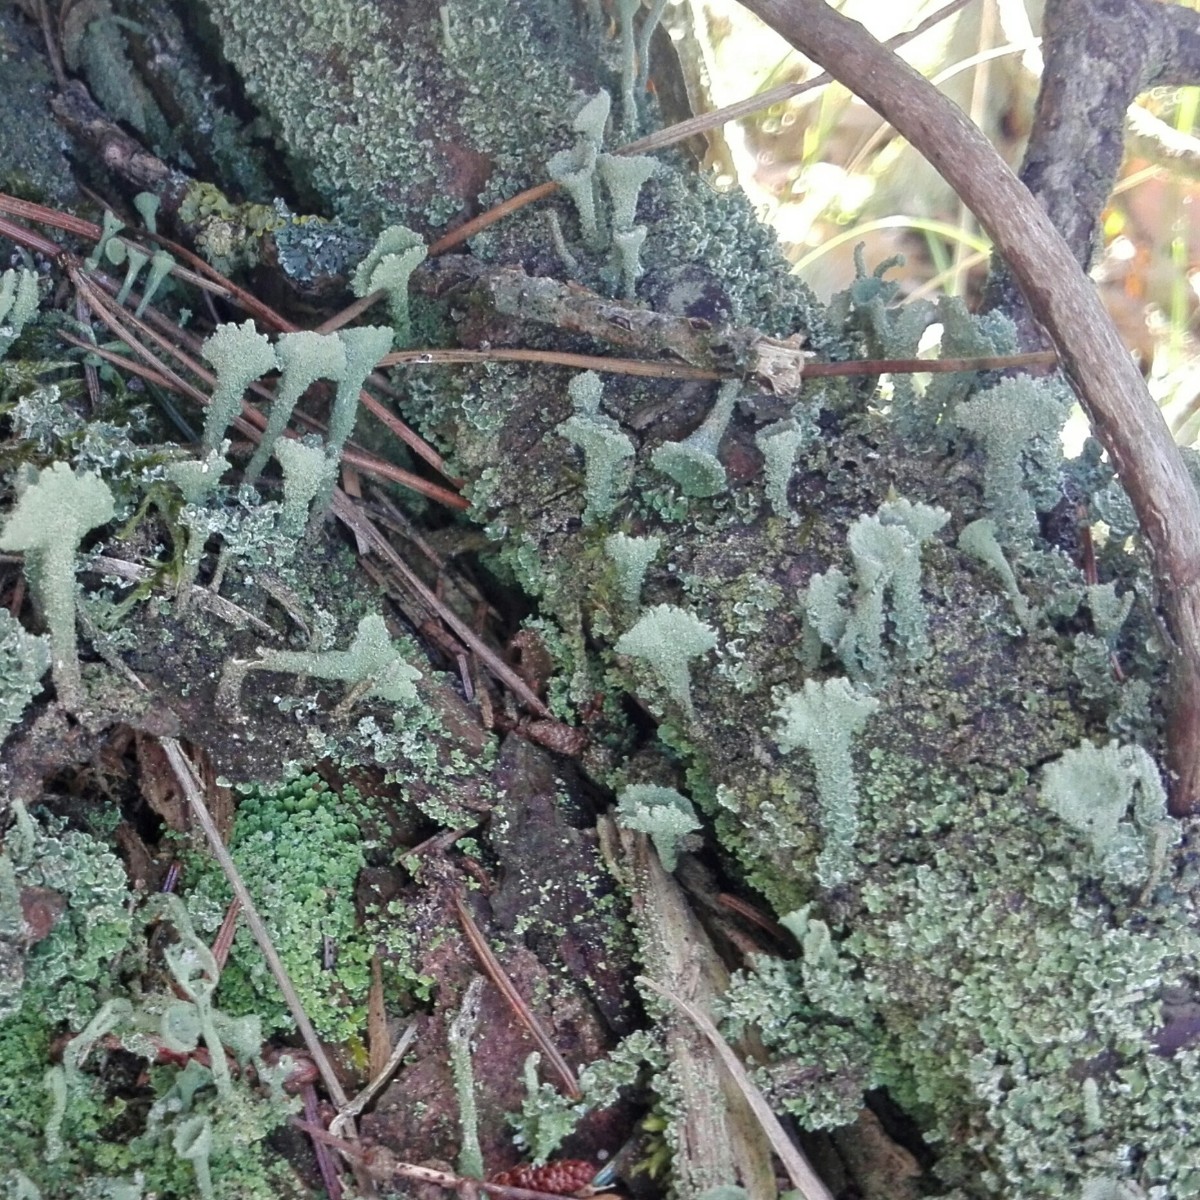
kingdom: Fungi
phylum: Ascomycota
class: Lecanoromycetes
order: Lecanorales
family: Cladoniaceae
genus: Cladonia
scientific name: Cladonia
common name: brungrøn bægerlav
